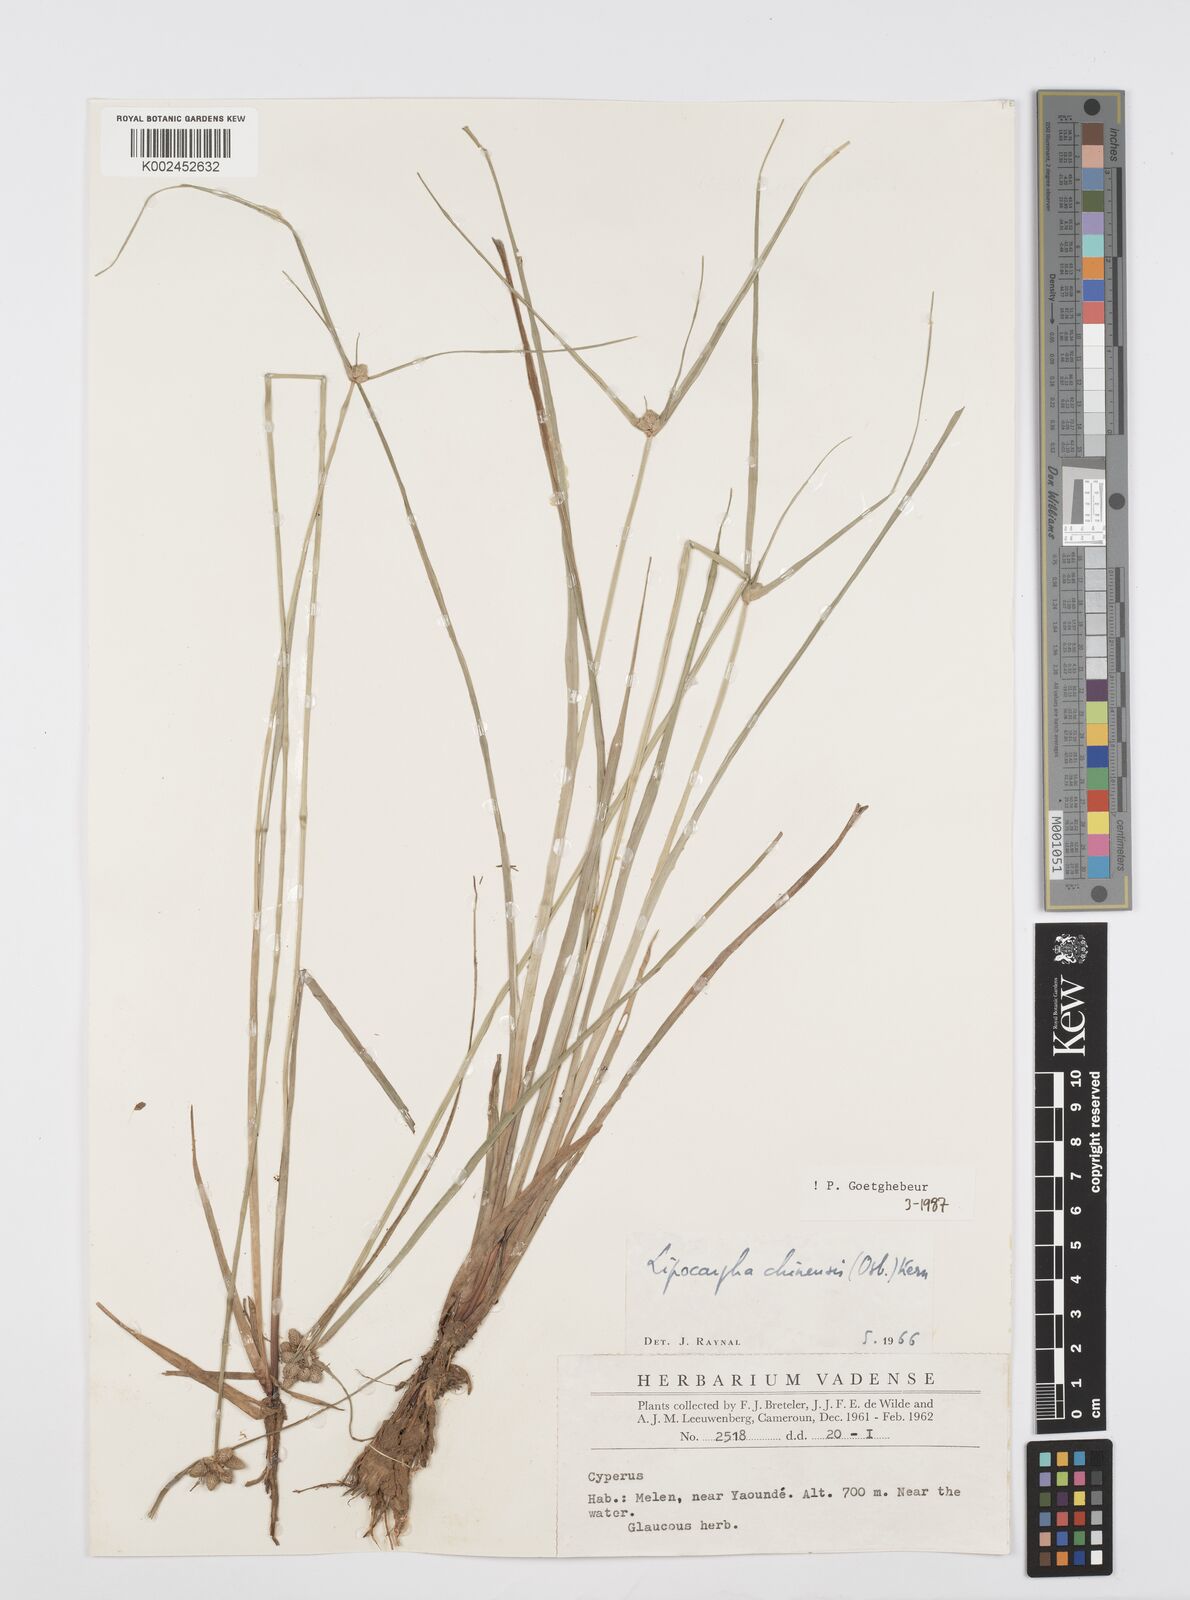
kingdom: Plantae
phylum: Tracheophyta
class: Liliopsida
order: Poales
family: Cyperaceae
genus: Cyperus
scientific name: Cyperus albescens
